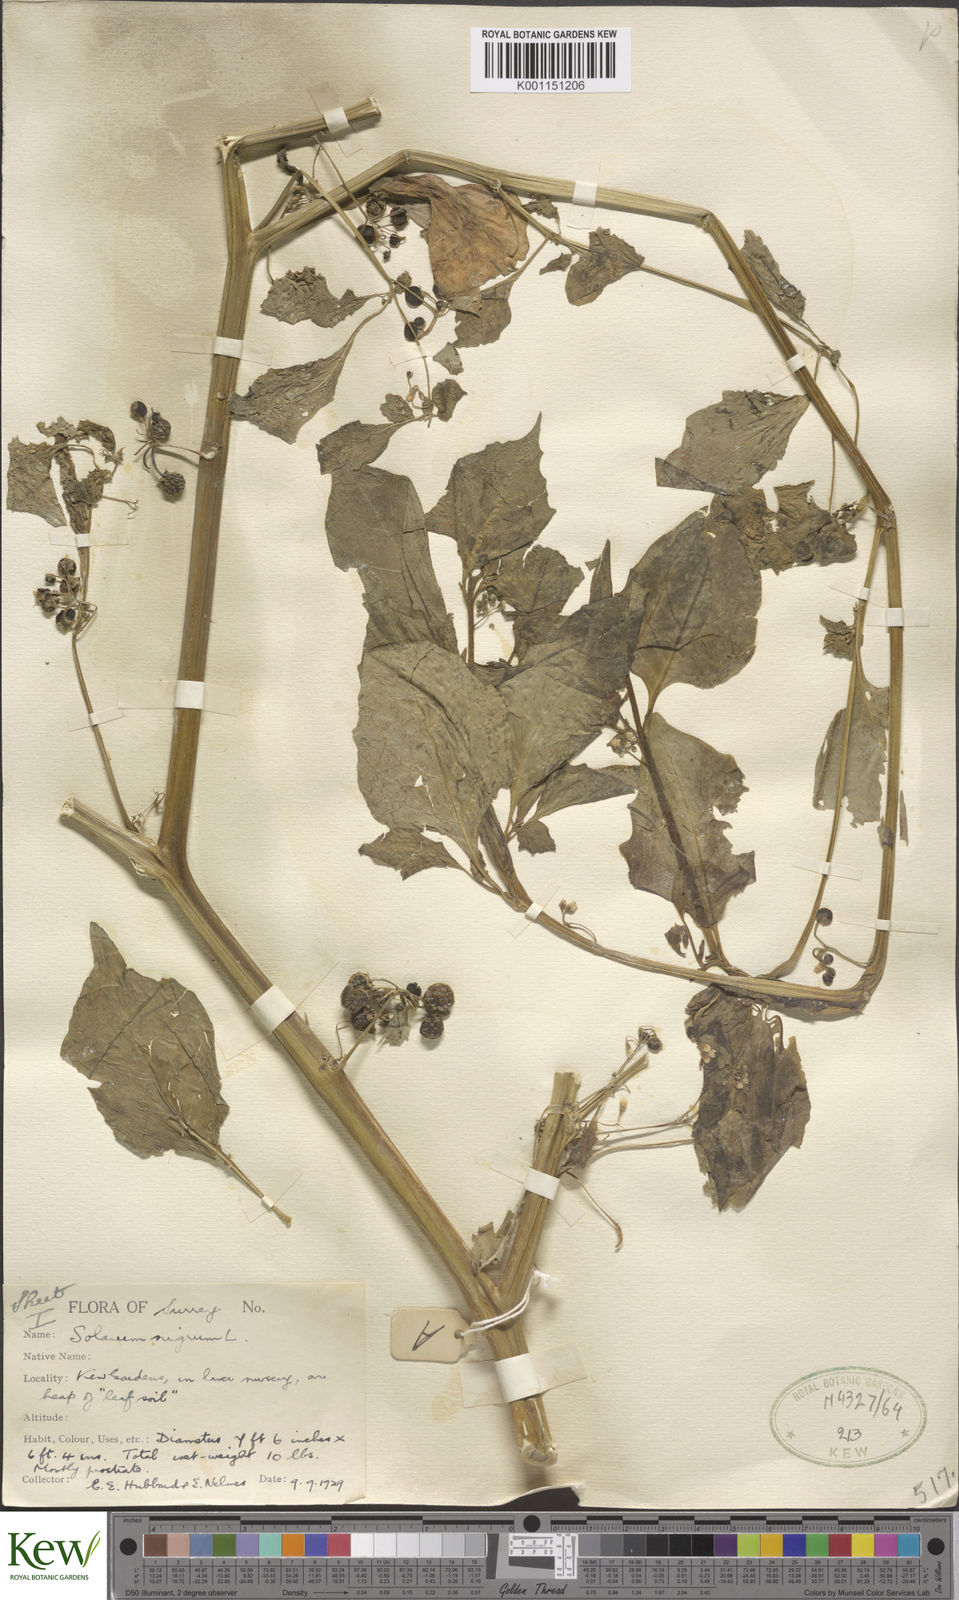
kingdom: Plantae
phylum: Tracheophyta
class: Magnoliopsida
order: Solanales
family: Solanaceae
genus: Solanum
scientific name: Solanum nigrum
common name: Black nightshade
